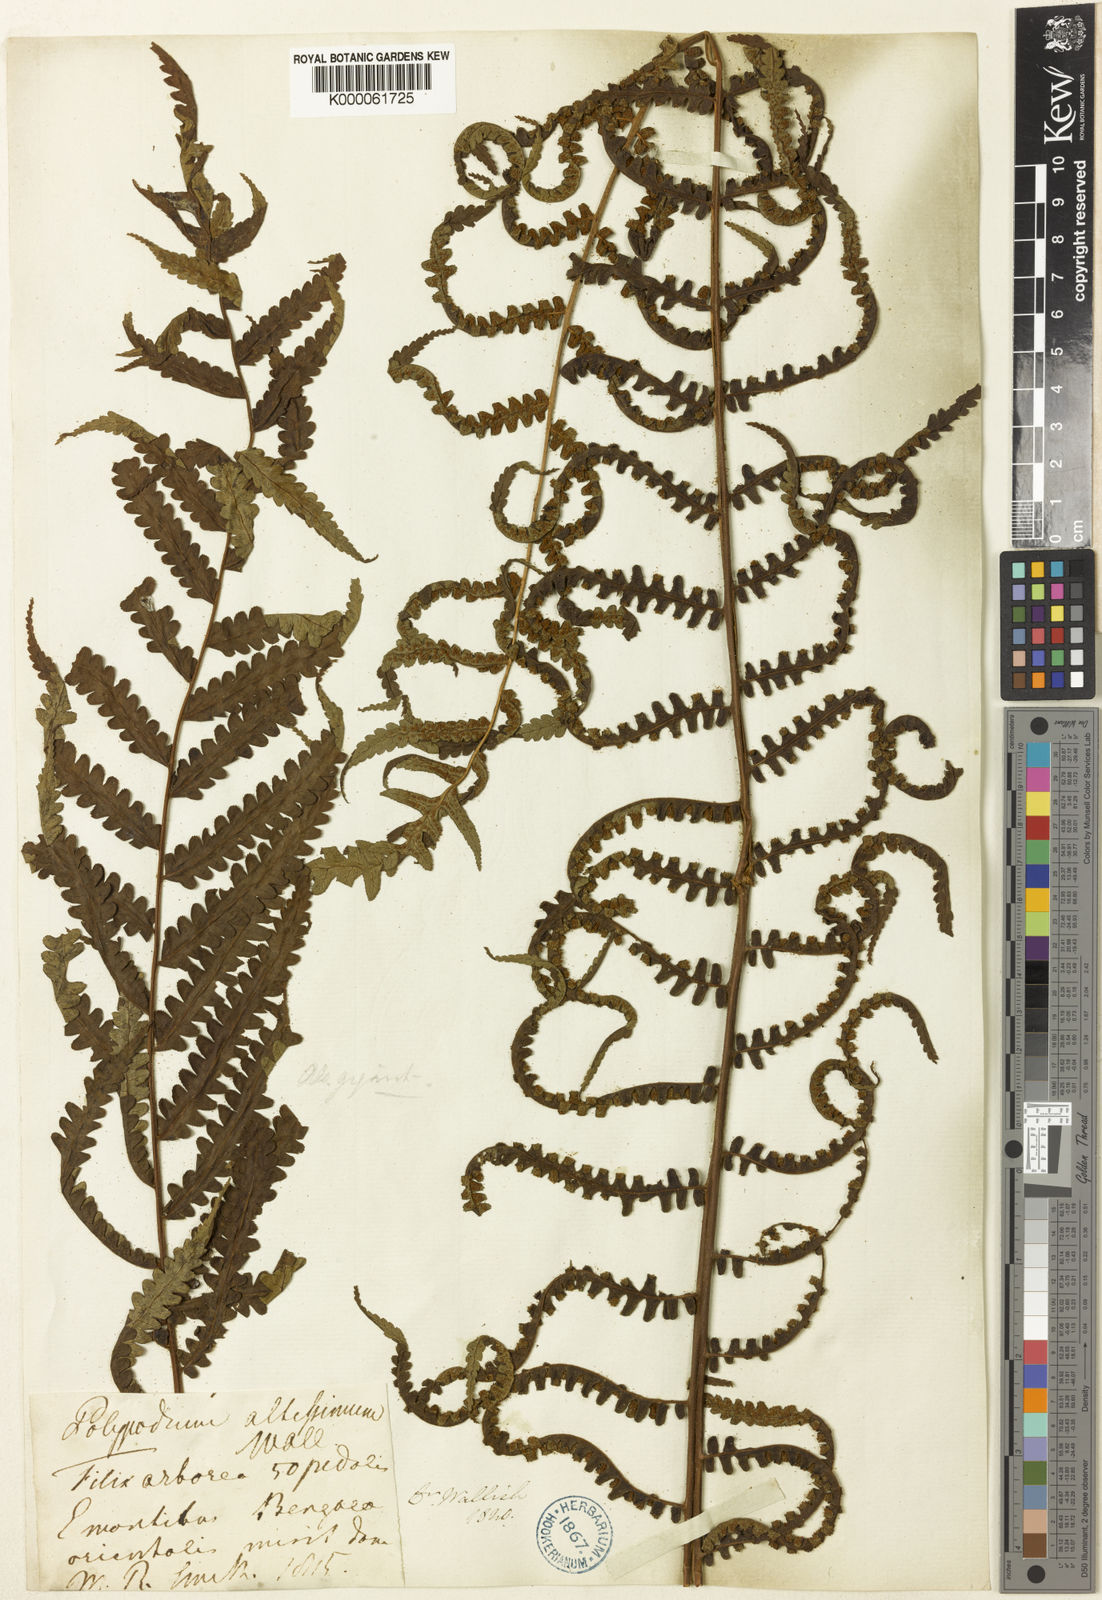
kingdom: Plantae
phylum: Tracheophyta
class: Polypodiopsida
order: Cyatheales
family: Cyatheaceae
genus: Gymnosphaera
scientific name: Gymnosphaera gigantea
